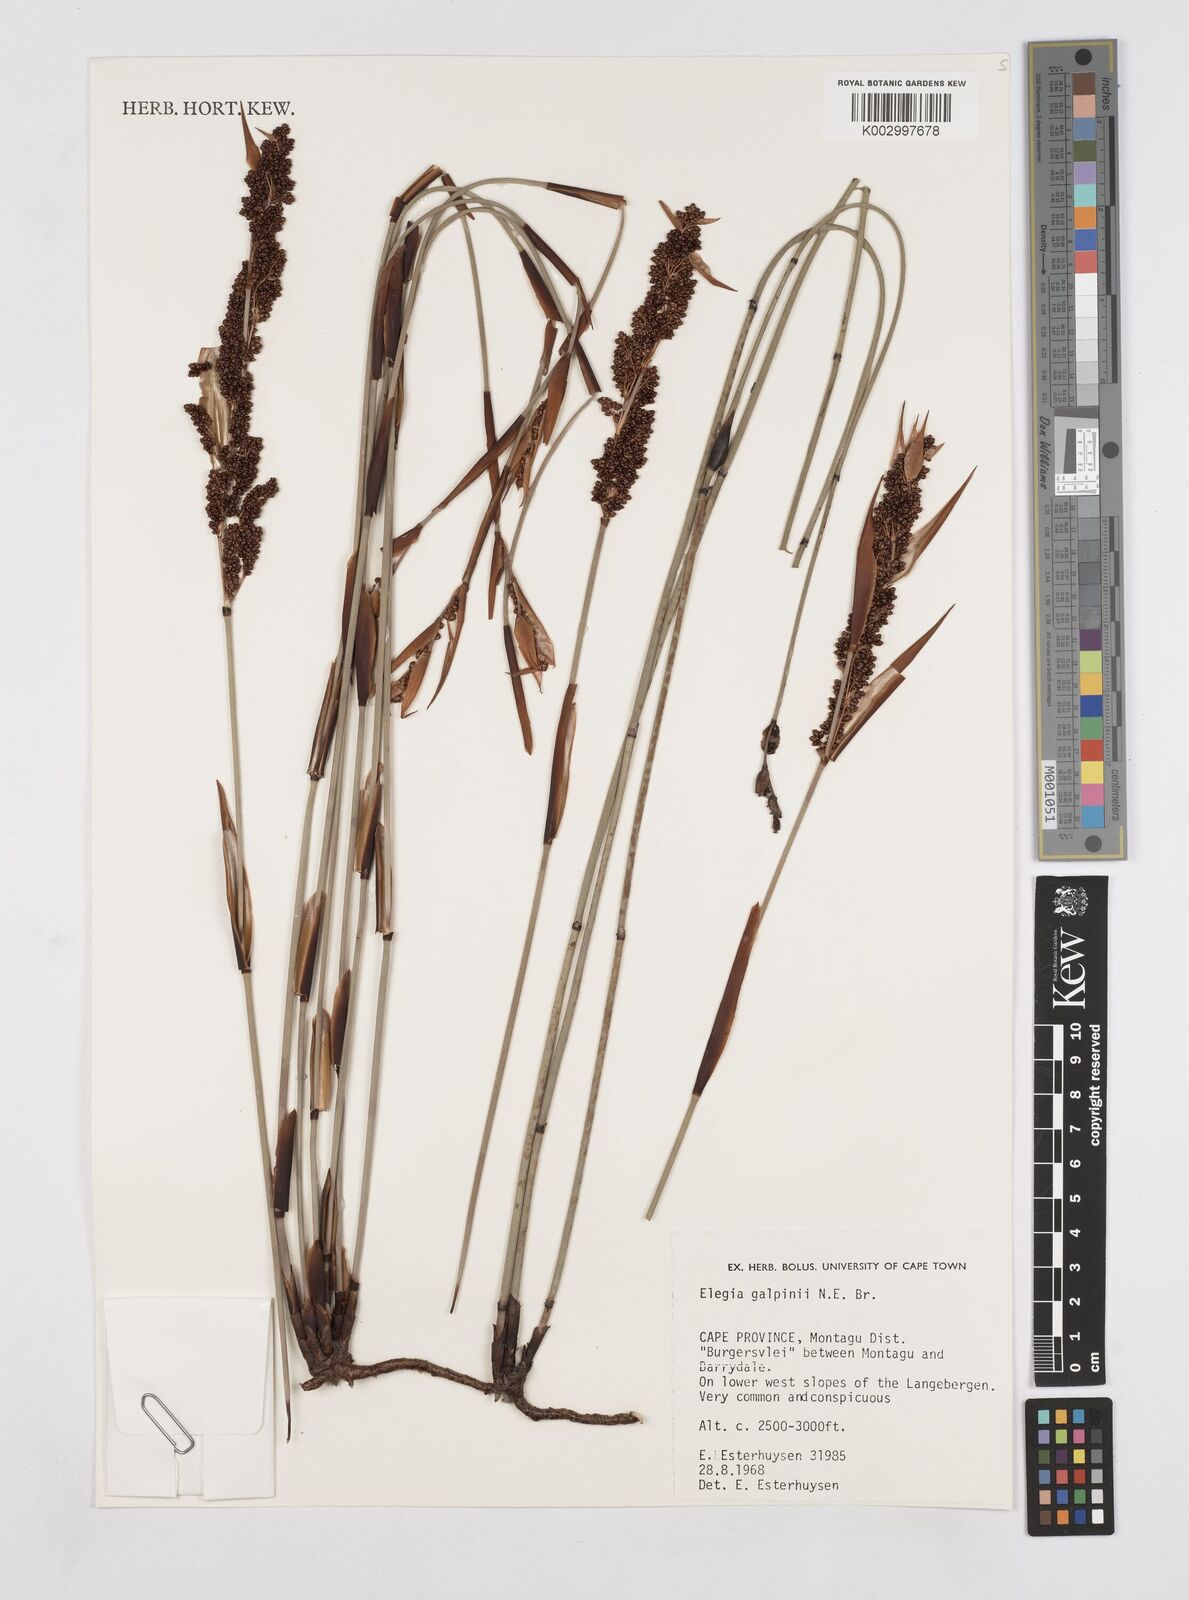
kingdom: Plantae
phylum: Tracheophyta
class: Liliopsida
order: Poales
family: Restionaceae
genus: Elegia
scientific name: Elegia galpinii
